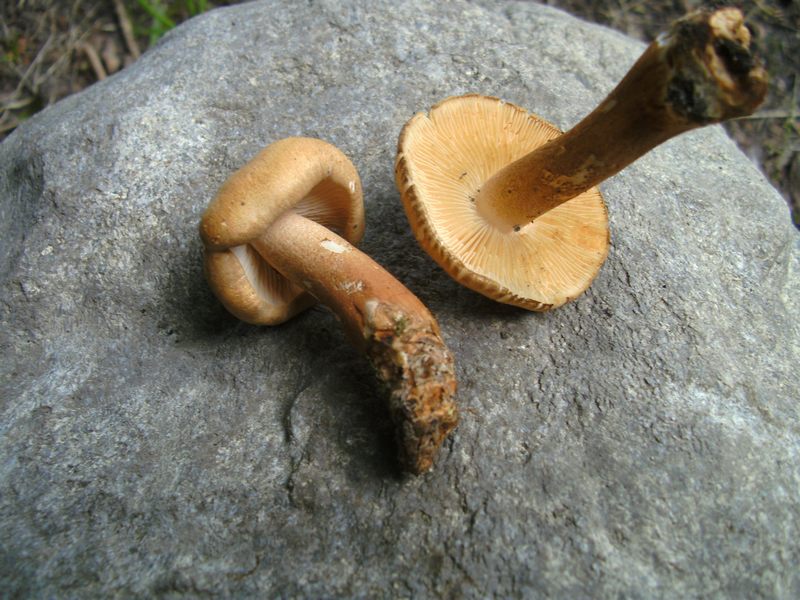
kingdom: Fungi
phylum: Basidiomycota
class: Agaricomycetes
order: Agaricales
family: Tricholomataceae
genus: Tricholoma
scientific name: Tricholoma psammopus
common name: grynstokket ridderhat
